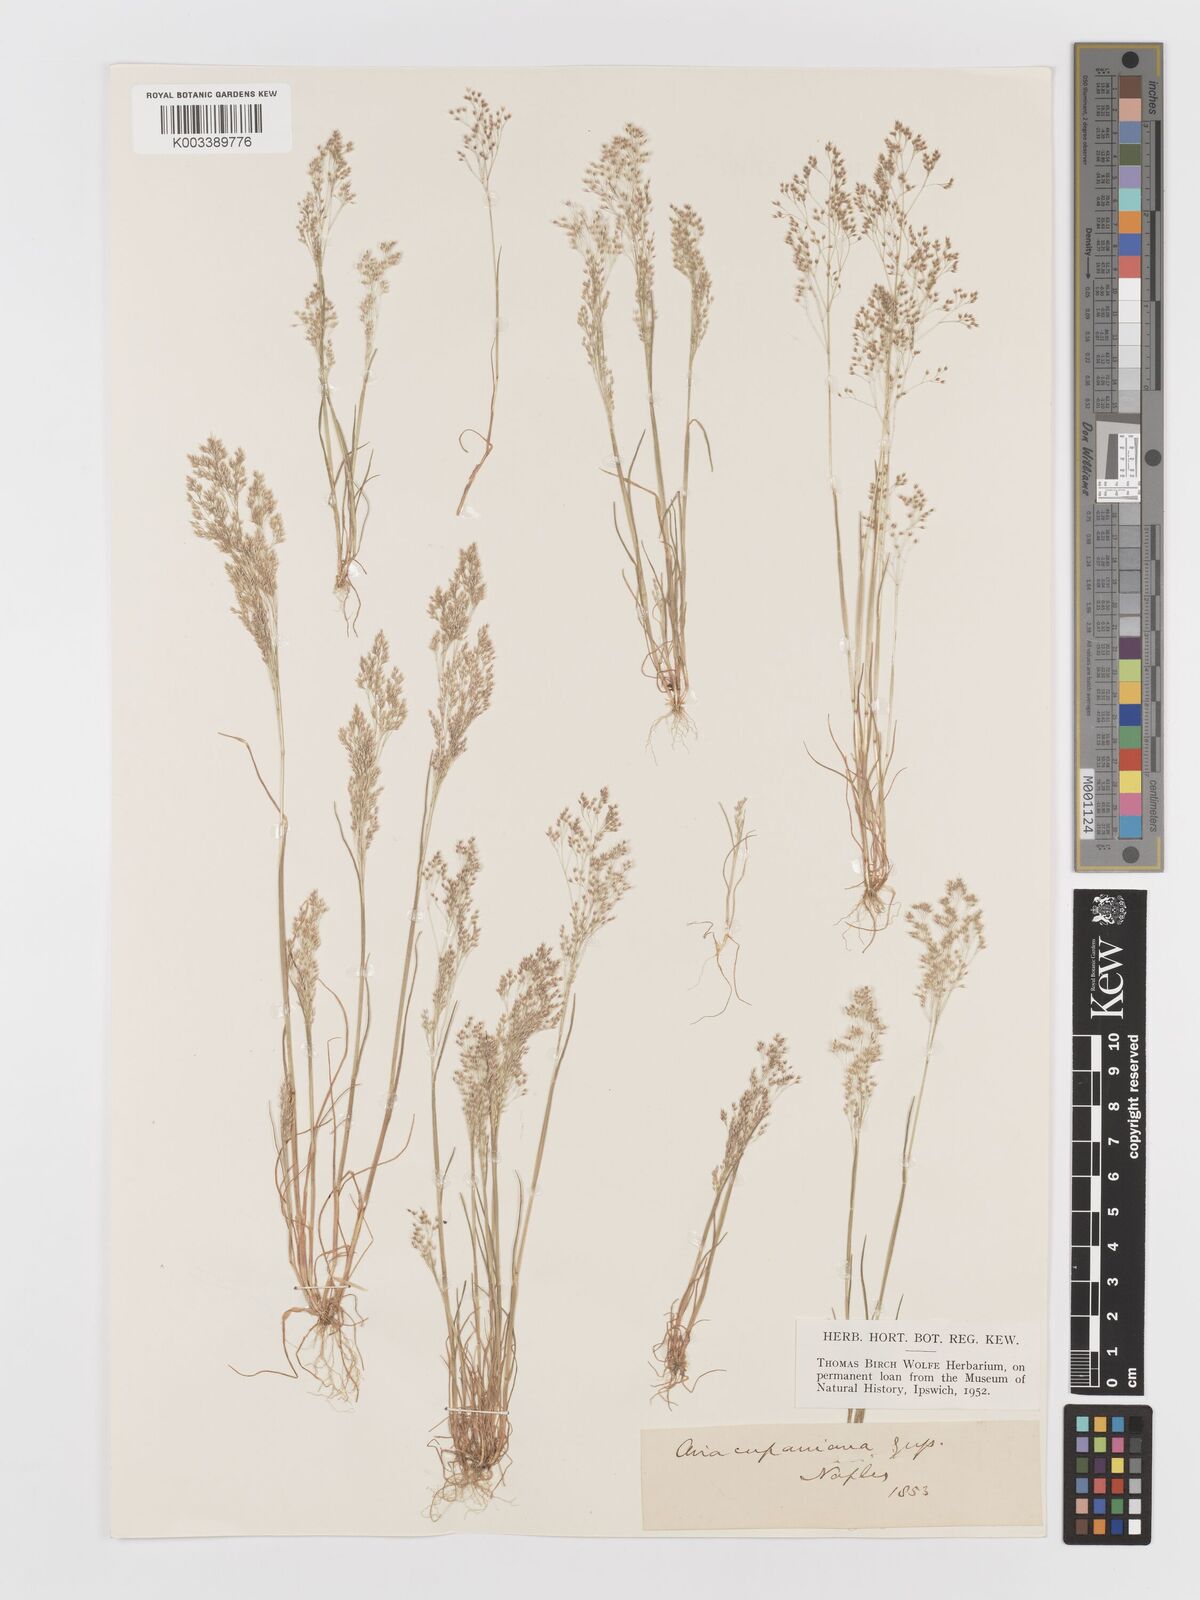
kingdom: Plantae
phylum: Tracheophyta
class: Liliopsida
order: Poales
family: Poaceae
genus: Aira
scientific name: Aira cupaniana
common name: Silver hairgrass
